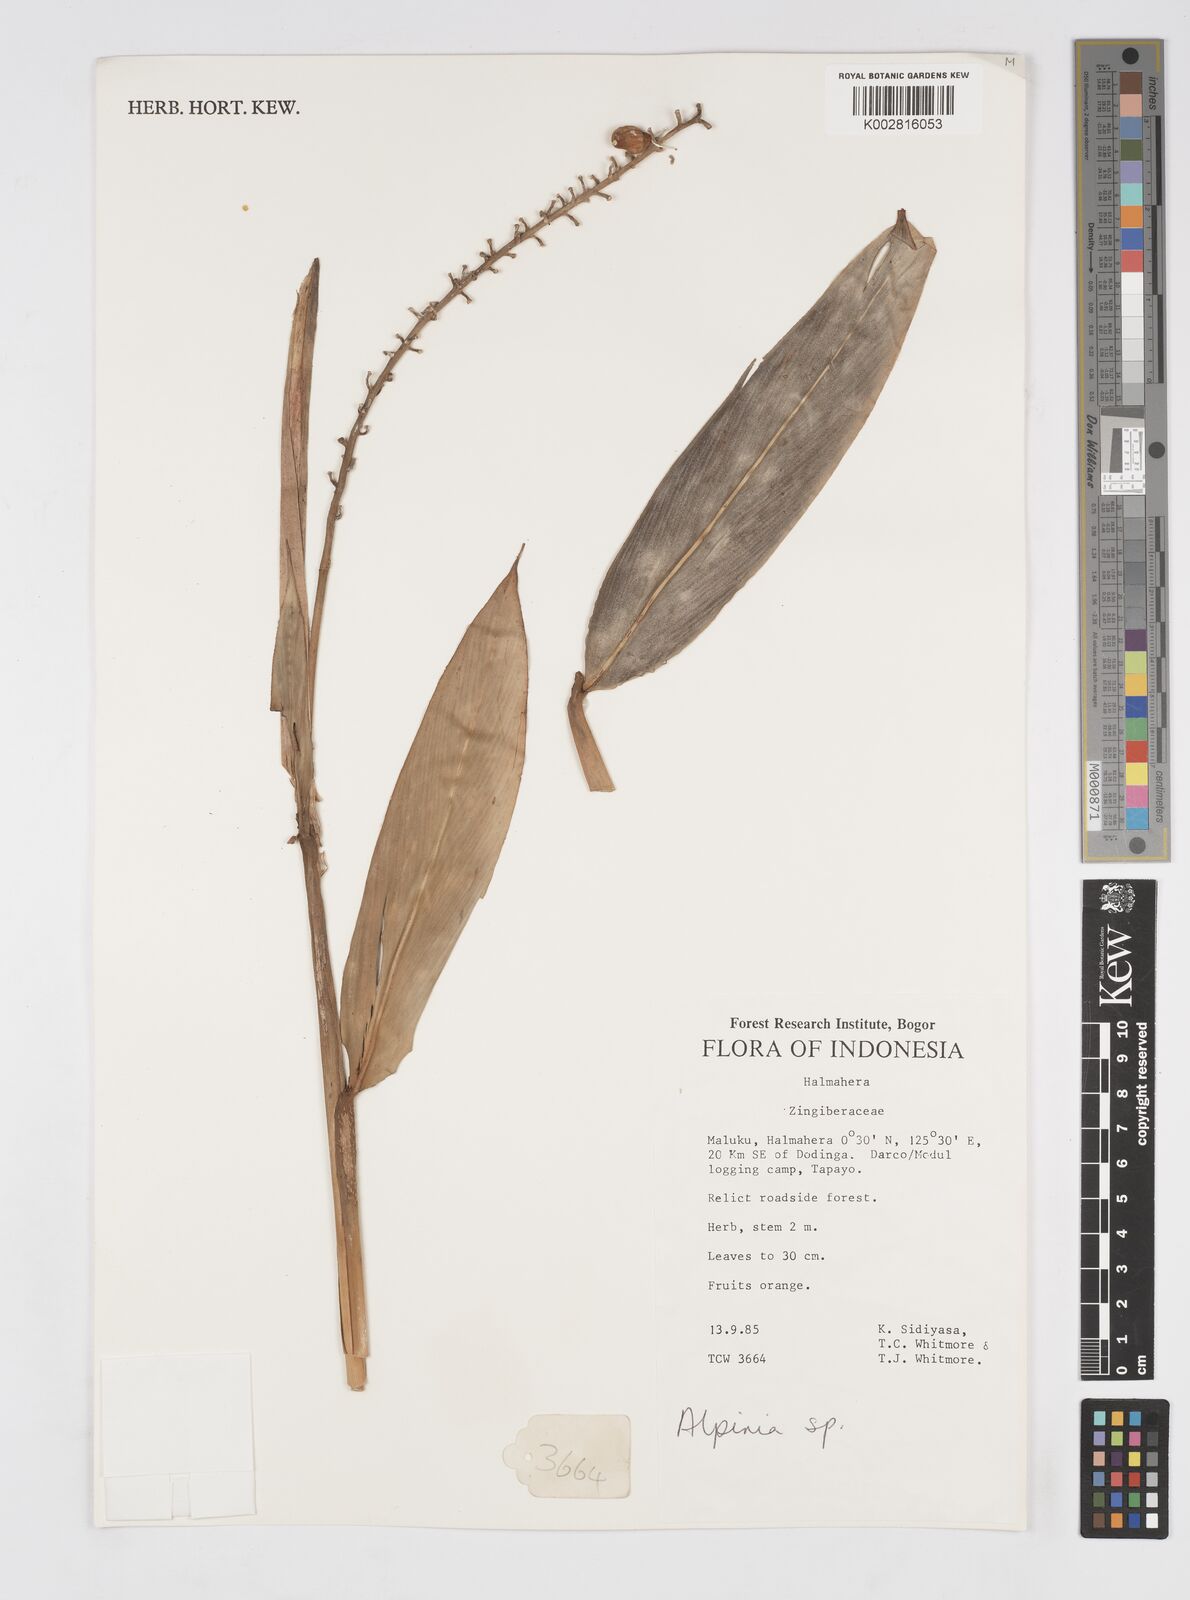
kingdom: Plantae
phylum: Tracheophyta
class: Liliopsida
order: Zingiberales
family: Zingiberaceae
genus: Alpinia
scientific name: Alpinia
